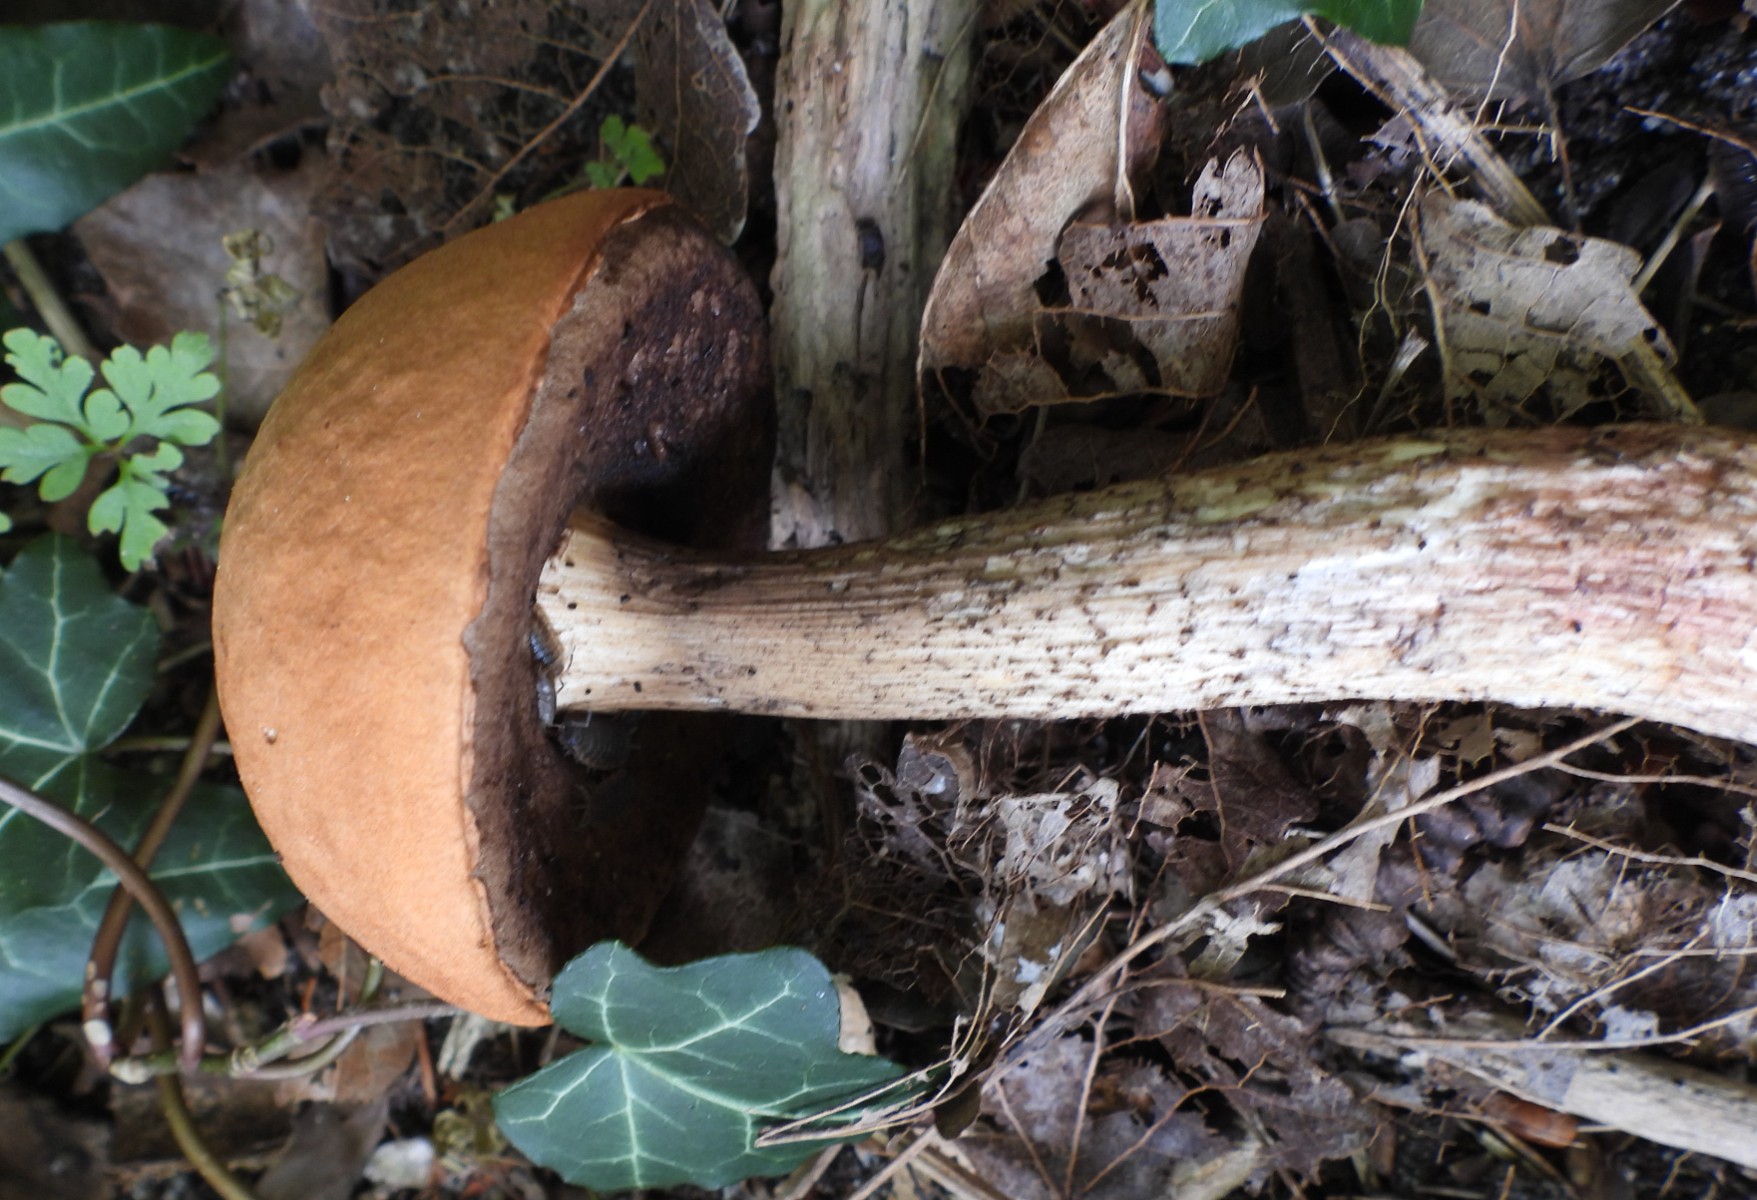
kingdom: Fungi
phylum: Basidiomycota
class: Agaricomycetes
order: Boletales
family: Boletaceae
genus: Leccinum
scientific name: Leccinum versipelle
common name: orange skælrørhat
